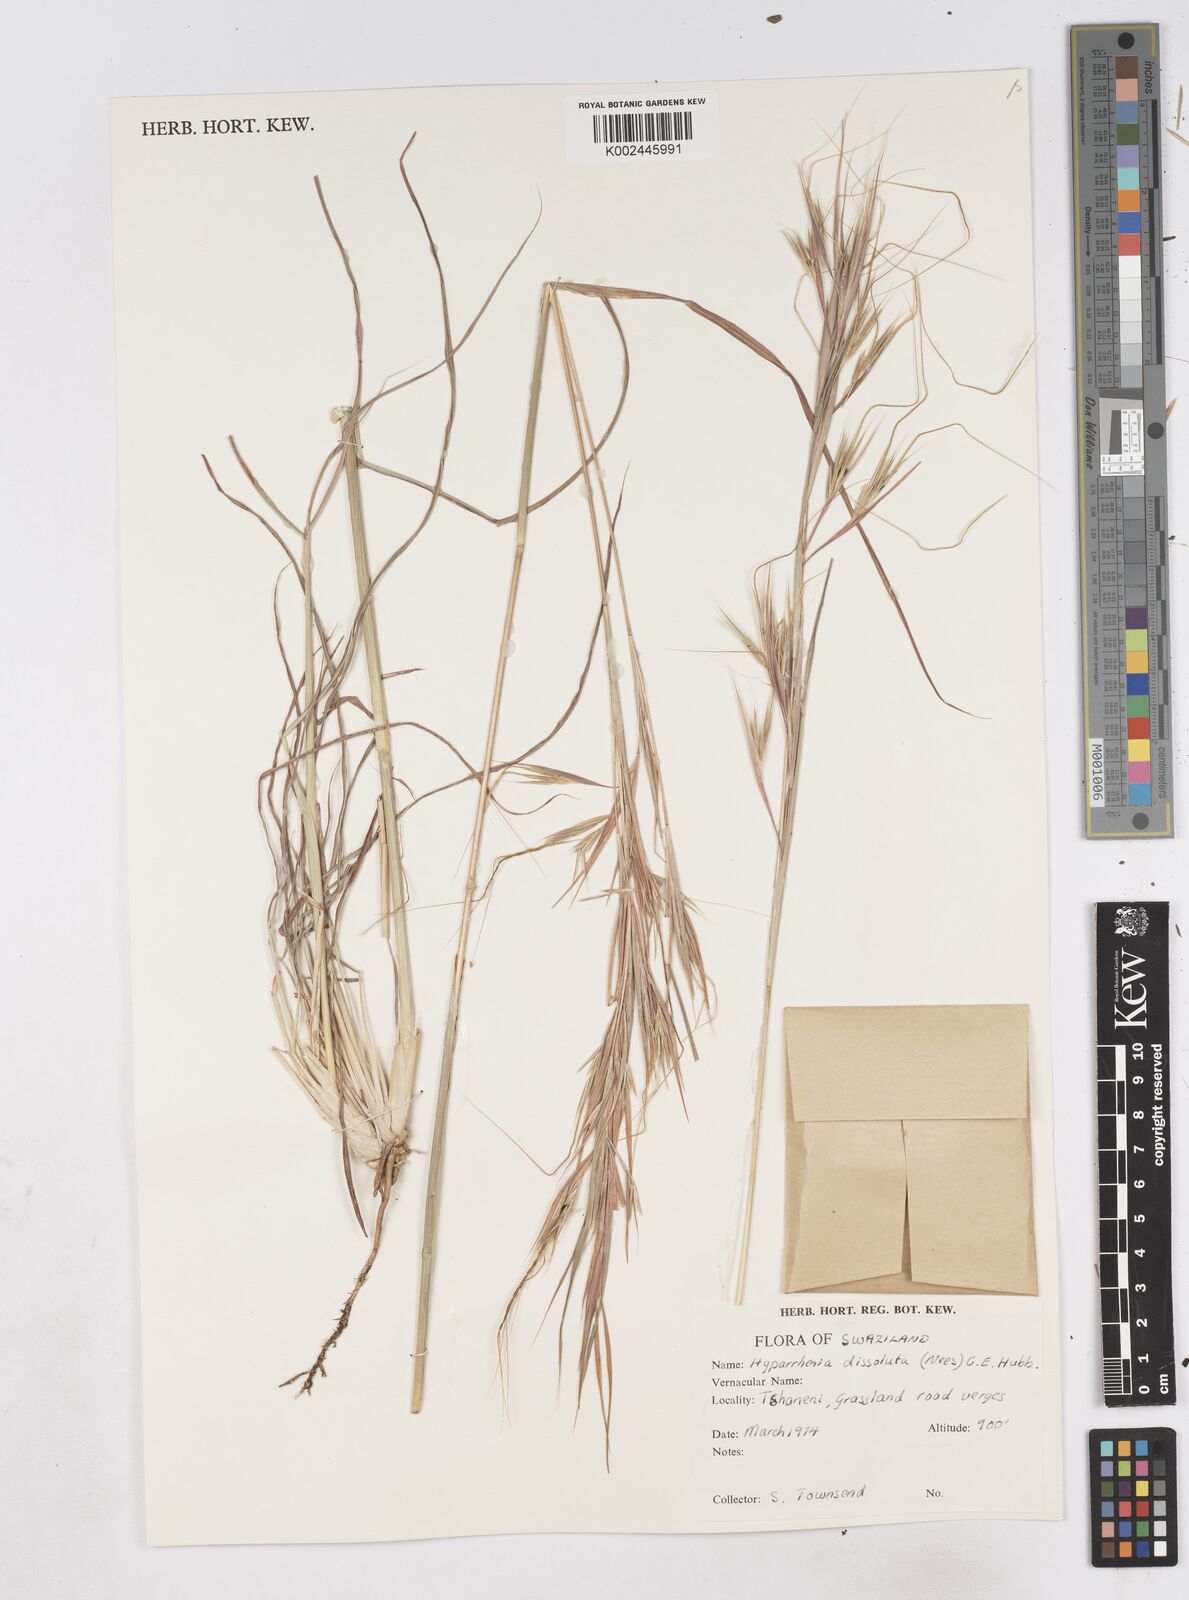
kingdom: Plantae
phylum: Tracheophyta
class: Liliopsida
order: Poales
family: Poaceae
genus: Hyperthelia
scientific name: Hyperthelia dissoluta
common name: Yellow thatching grass
